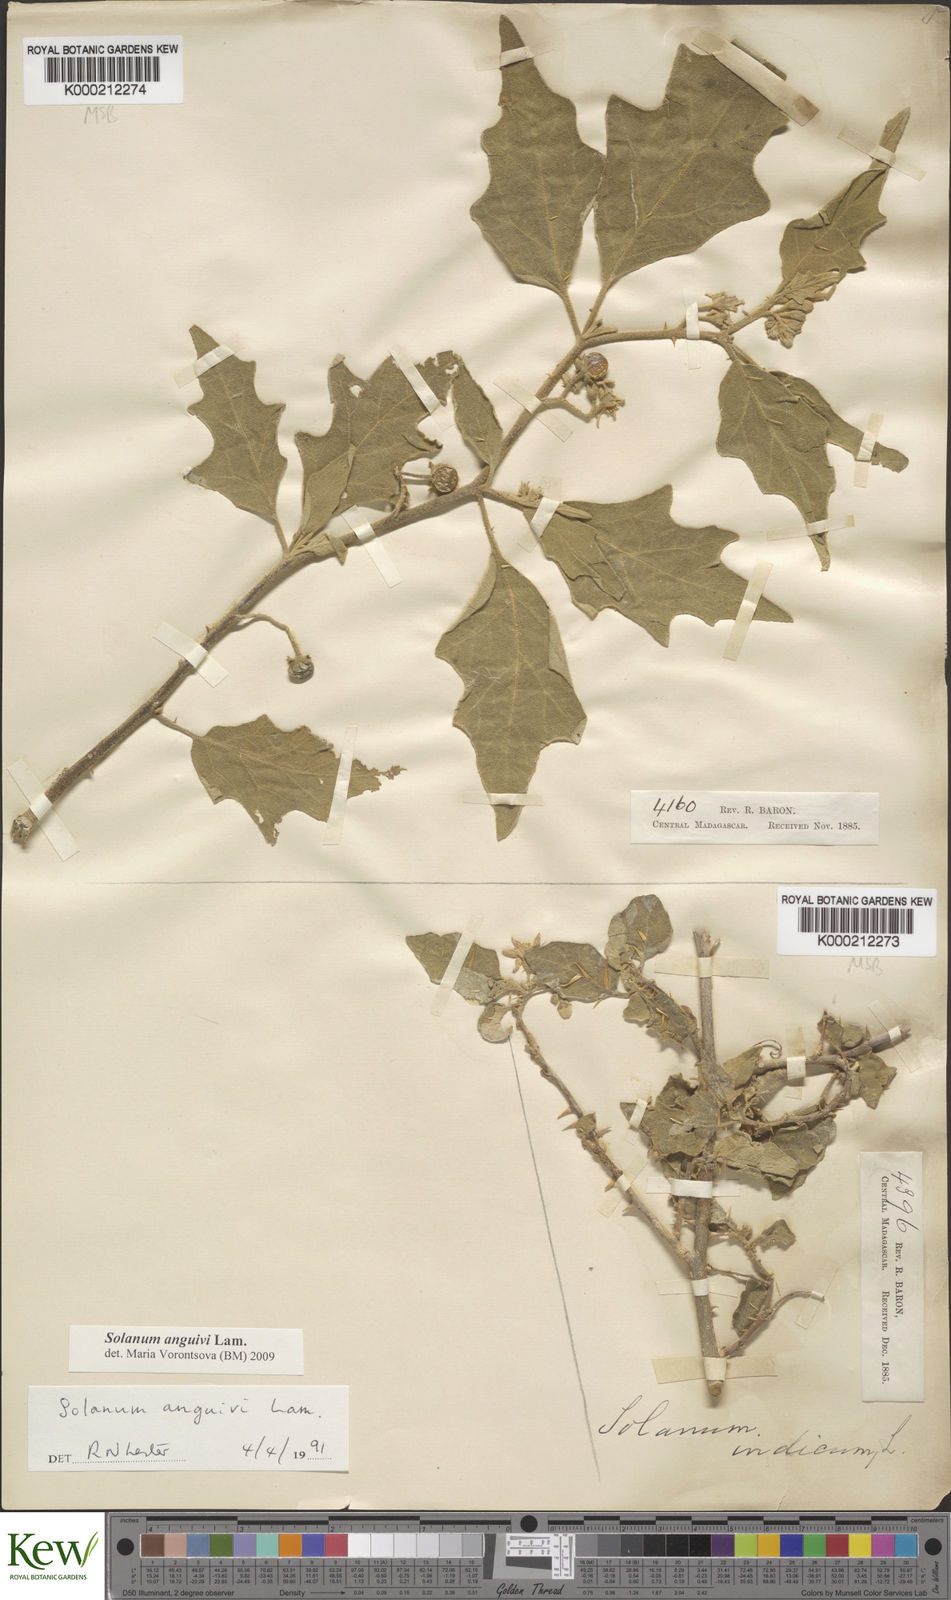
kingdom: Plantae
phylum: Tracheophyta
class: Magnoliopsida
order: Solanales
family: Solanaceae
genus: Solanum
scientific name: Solanum anguivi
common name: Forest bitterberry
